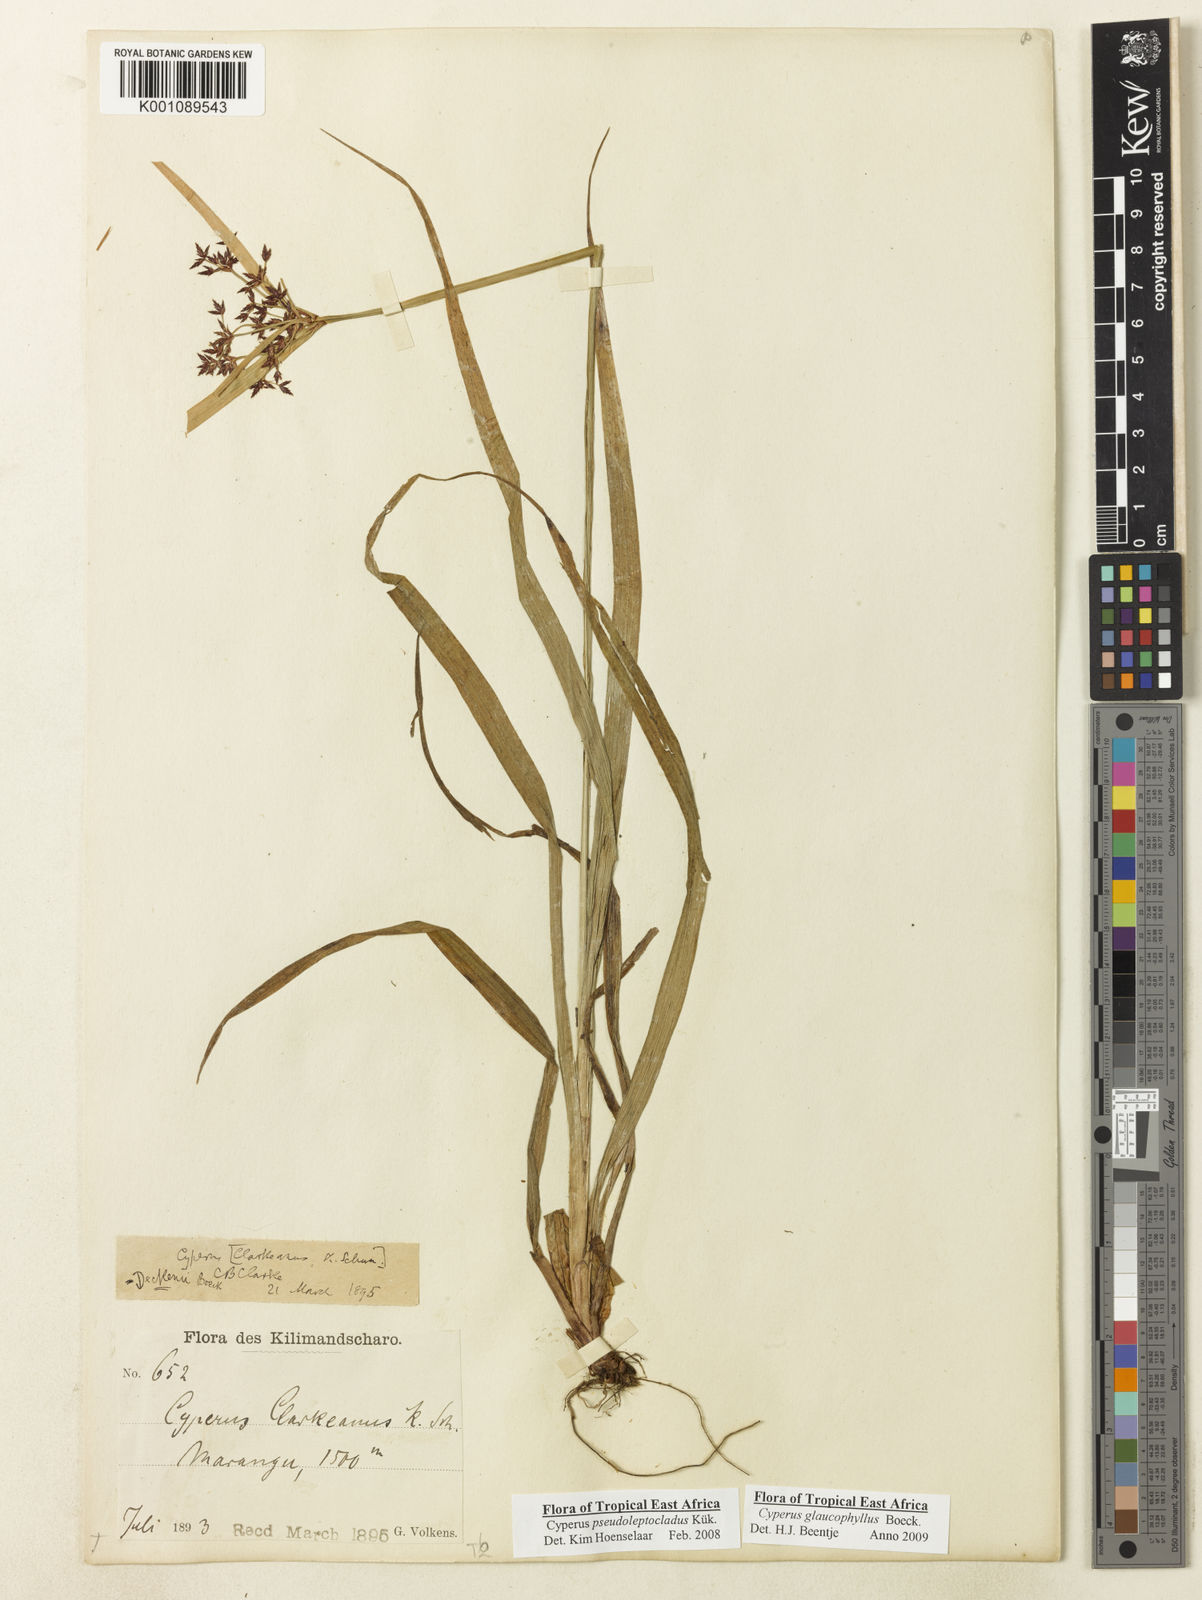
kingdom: Plantae
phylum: Tracheophyta
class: Liliopsida
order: Poales
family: Cyperaceae
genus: Cyperus
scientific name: Cyperus glaucophyllus
